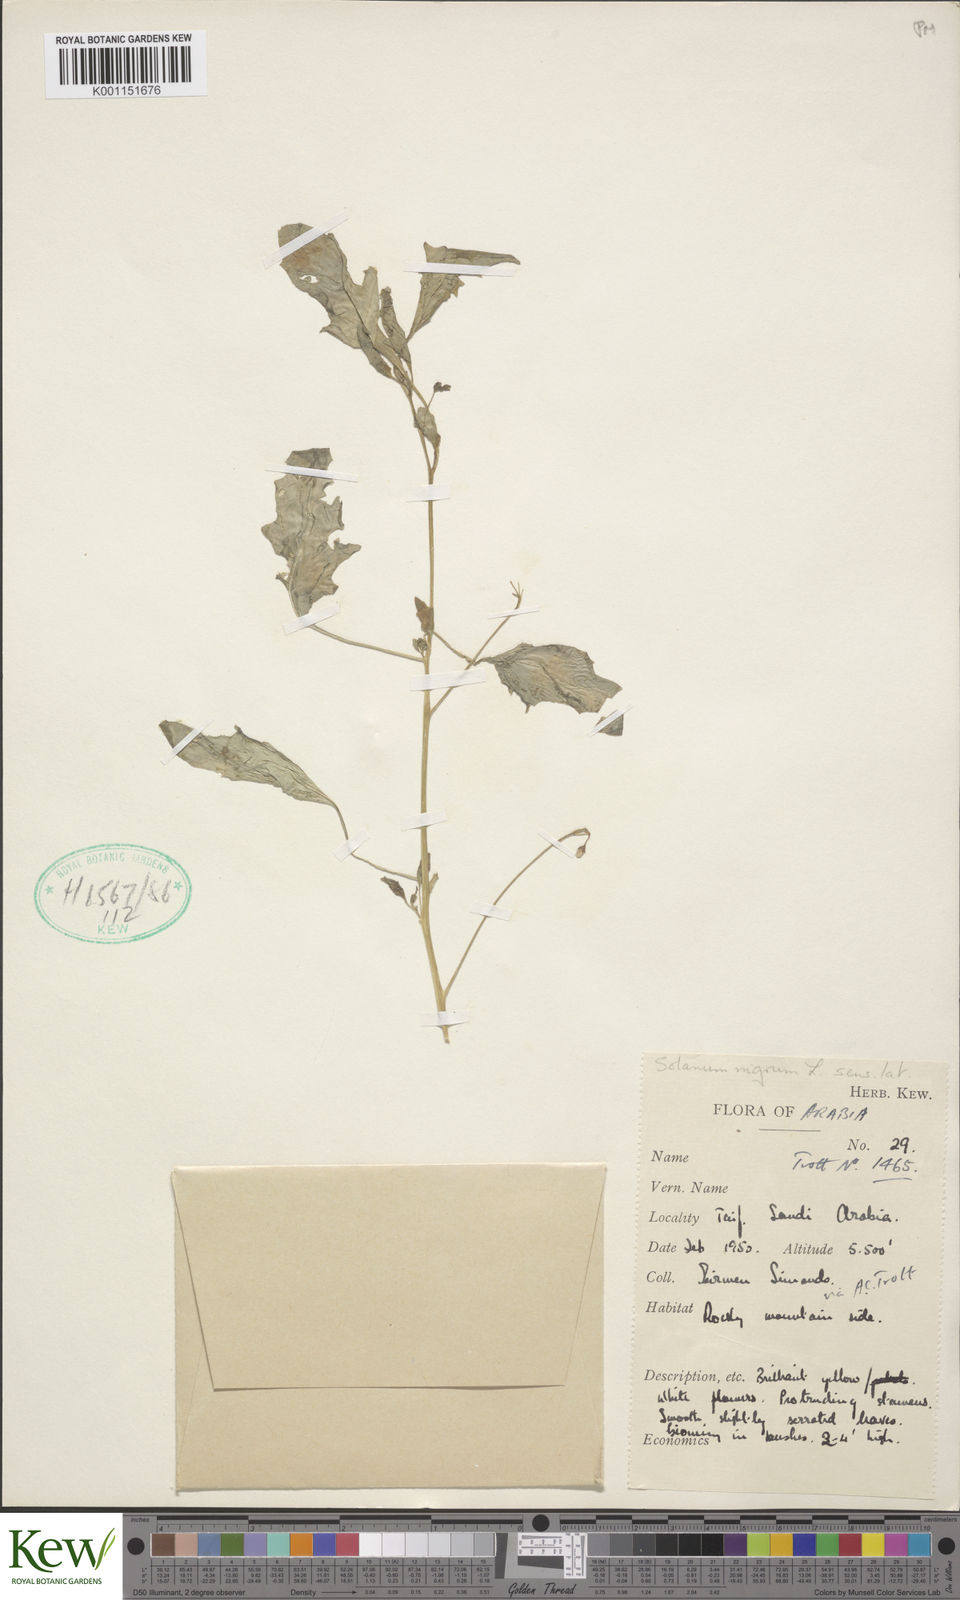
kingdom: Plantae
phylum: Tracheophyta
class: Magnoliopsida
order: Solanales
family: Solanaceae
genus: Solanum
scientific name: Solanum americanum
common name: American black nightshade
